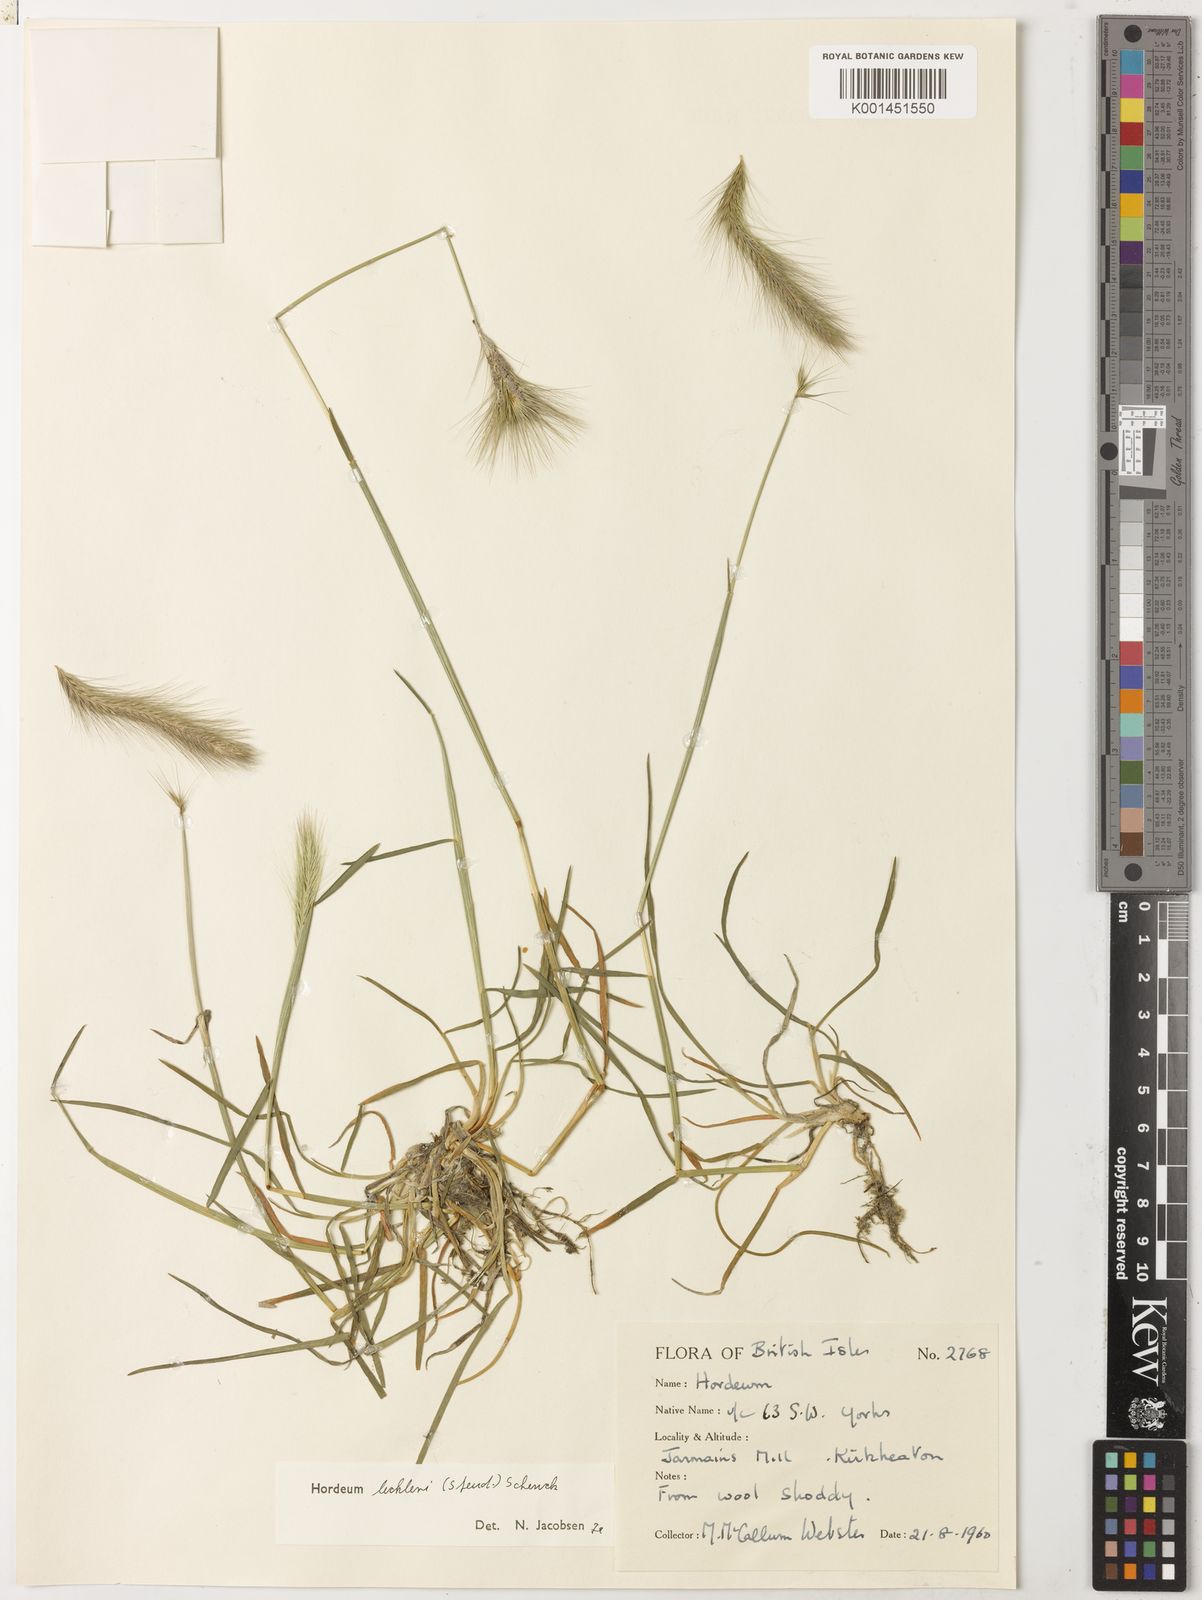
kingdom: Plantae
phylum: Tracheophyta
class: Liliopsida
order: Poales
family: Poaceae
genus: Hordeum
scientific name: Hordeum lechleri
